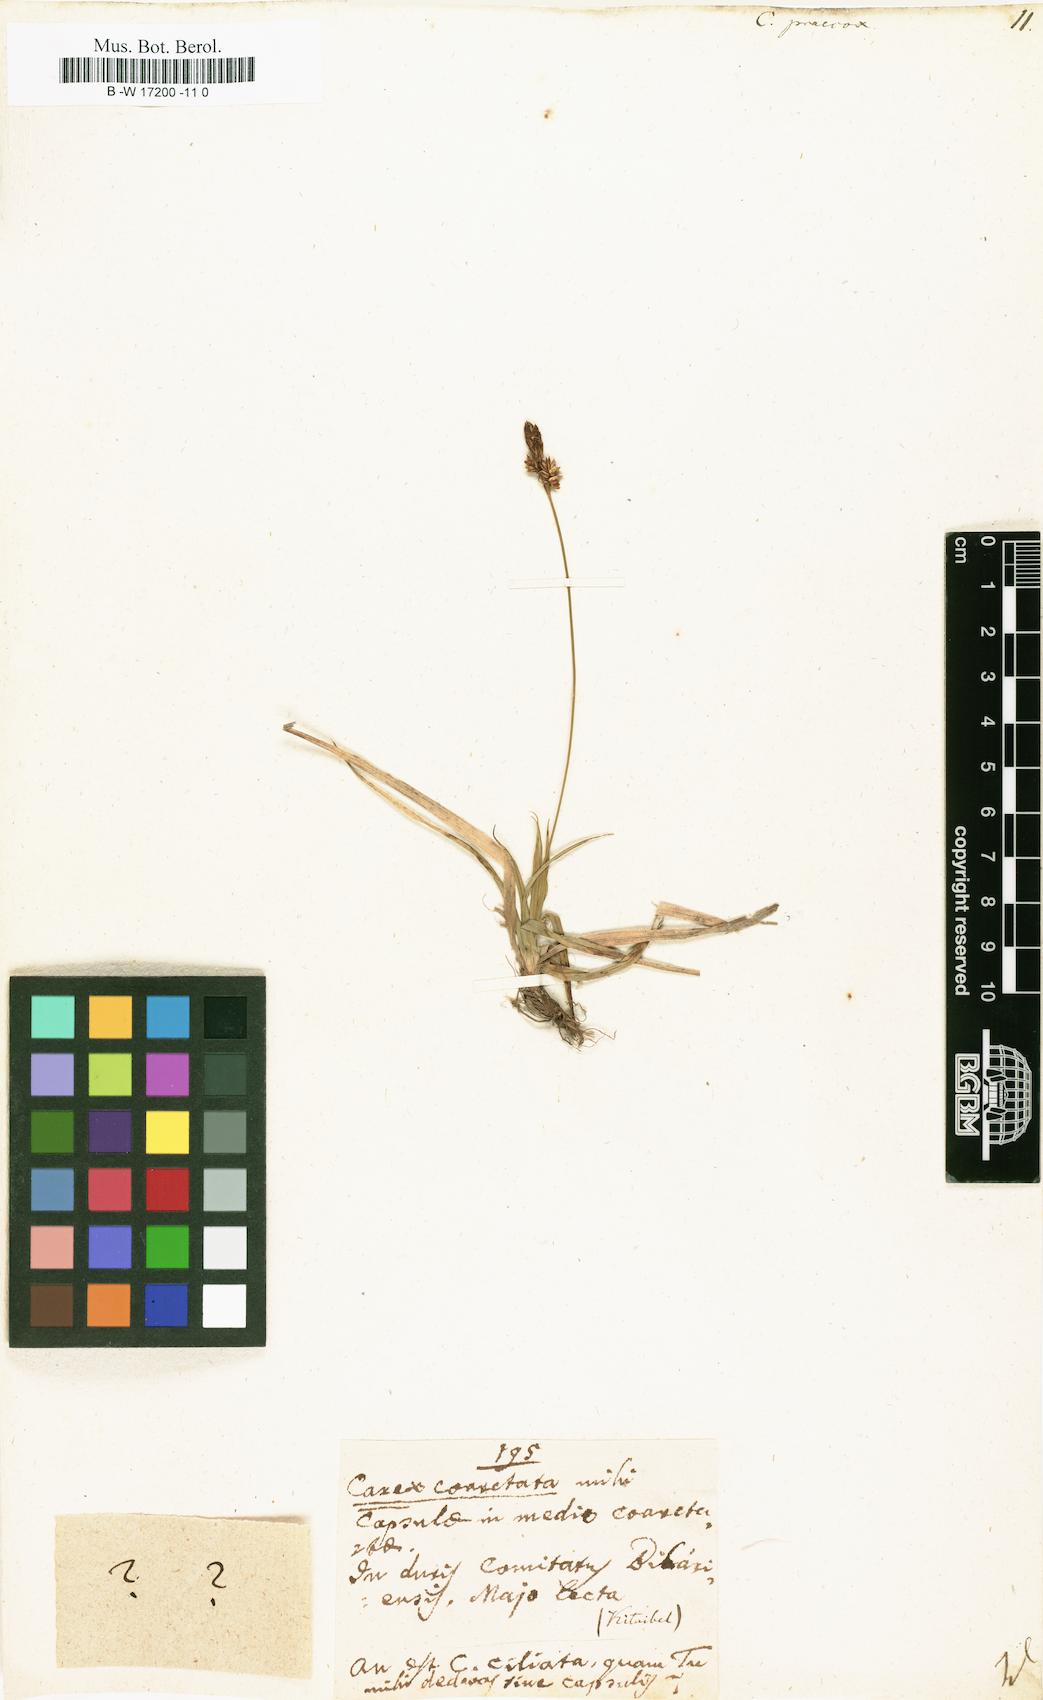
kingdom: Plantae
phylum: Tracheophyta
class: Liliopsida
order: Poales
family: Cyperaceae
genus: Carex
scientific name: Carex praecox
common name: Early sedge
